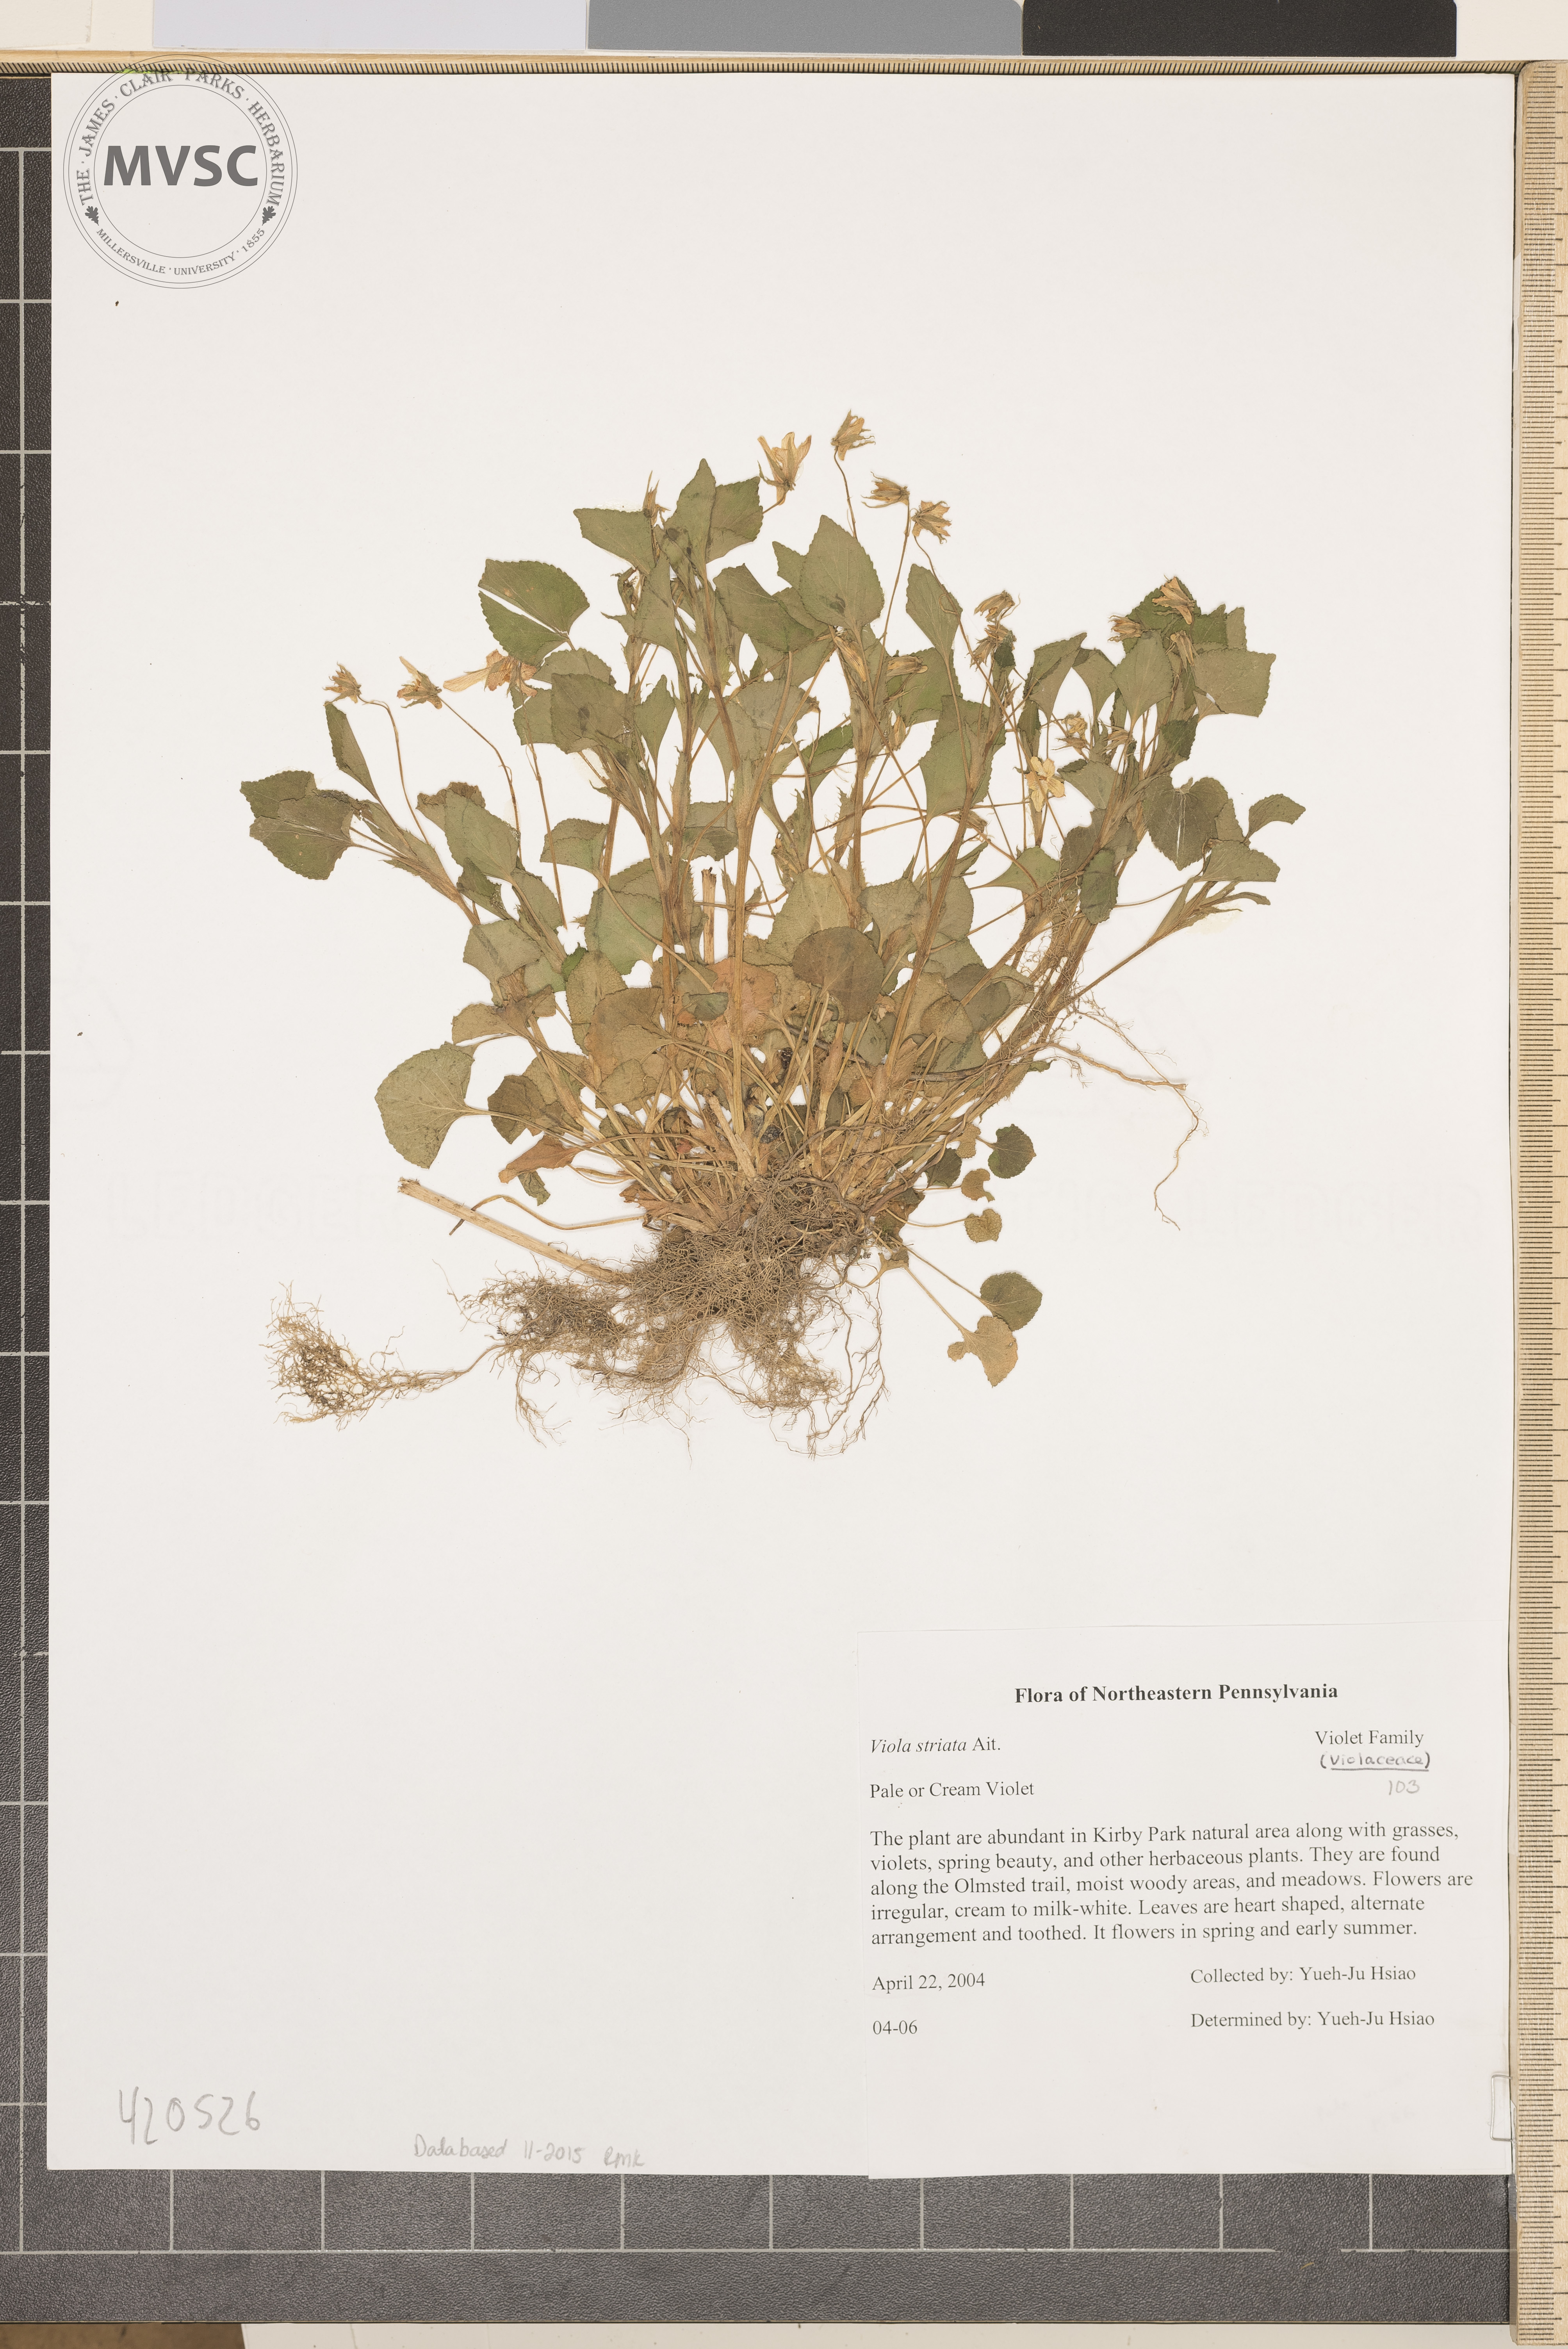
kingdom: Plantae
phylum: Tracheophyta
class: Magnoliopsida
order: Malpighiales
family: Violaceae
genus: Viola
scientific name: Viola striata
